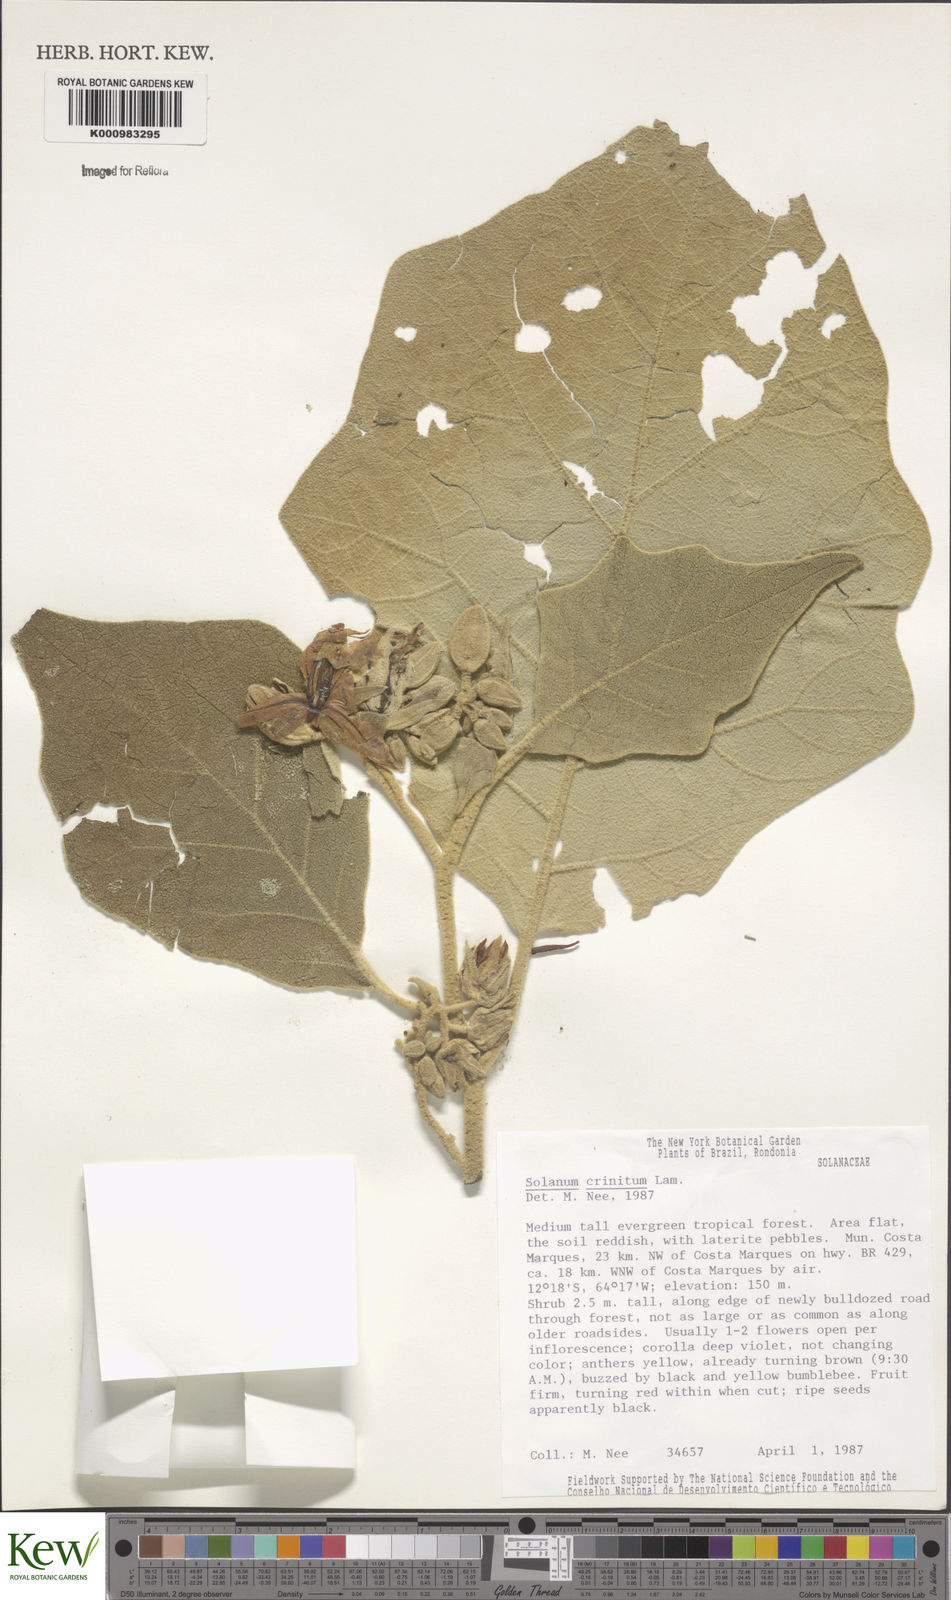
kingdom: Plantae
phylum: Tracheophyta
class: Magnoliopsida
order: Solanales
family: Solanaceae
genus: Solanum
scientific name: Solanum crinitum
